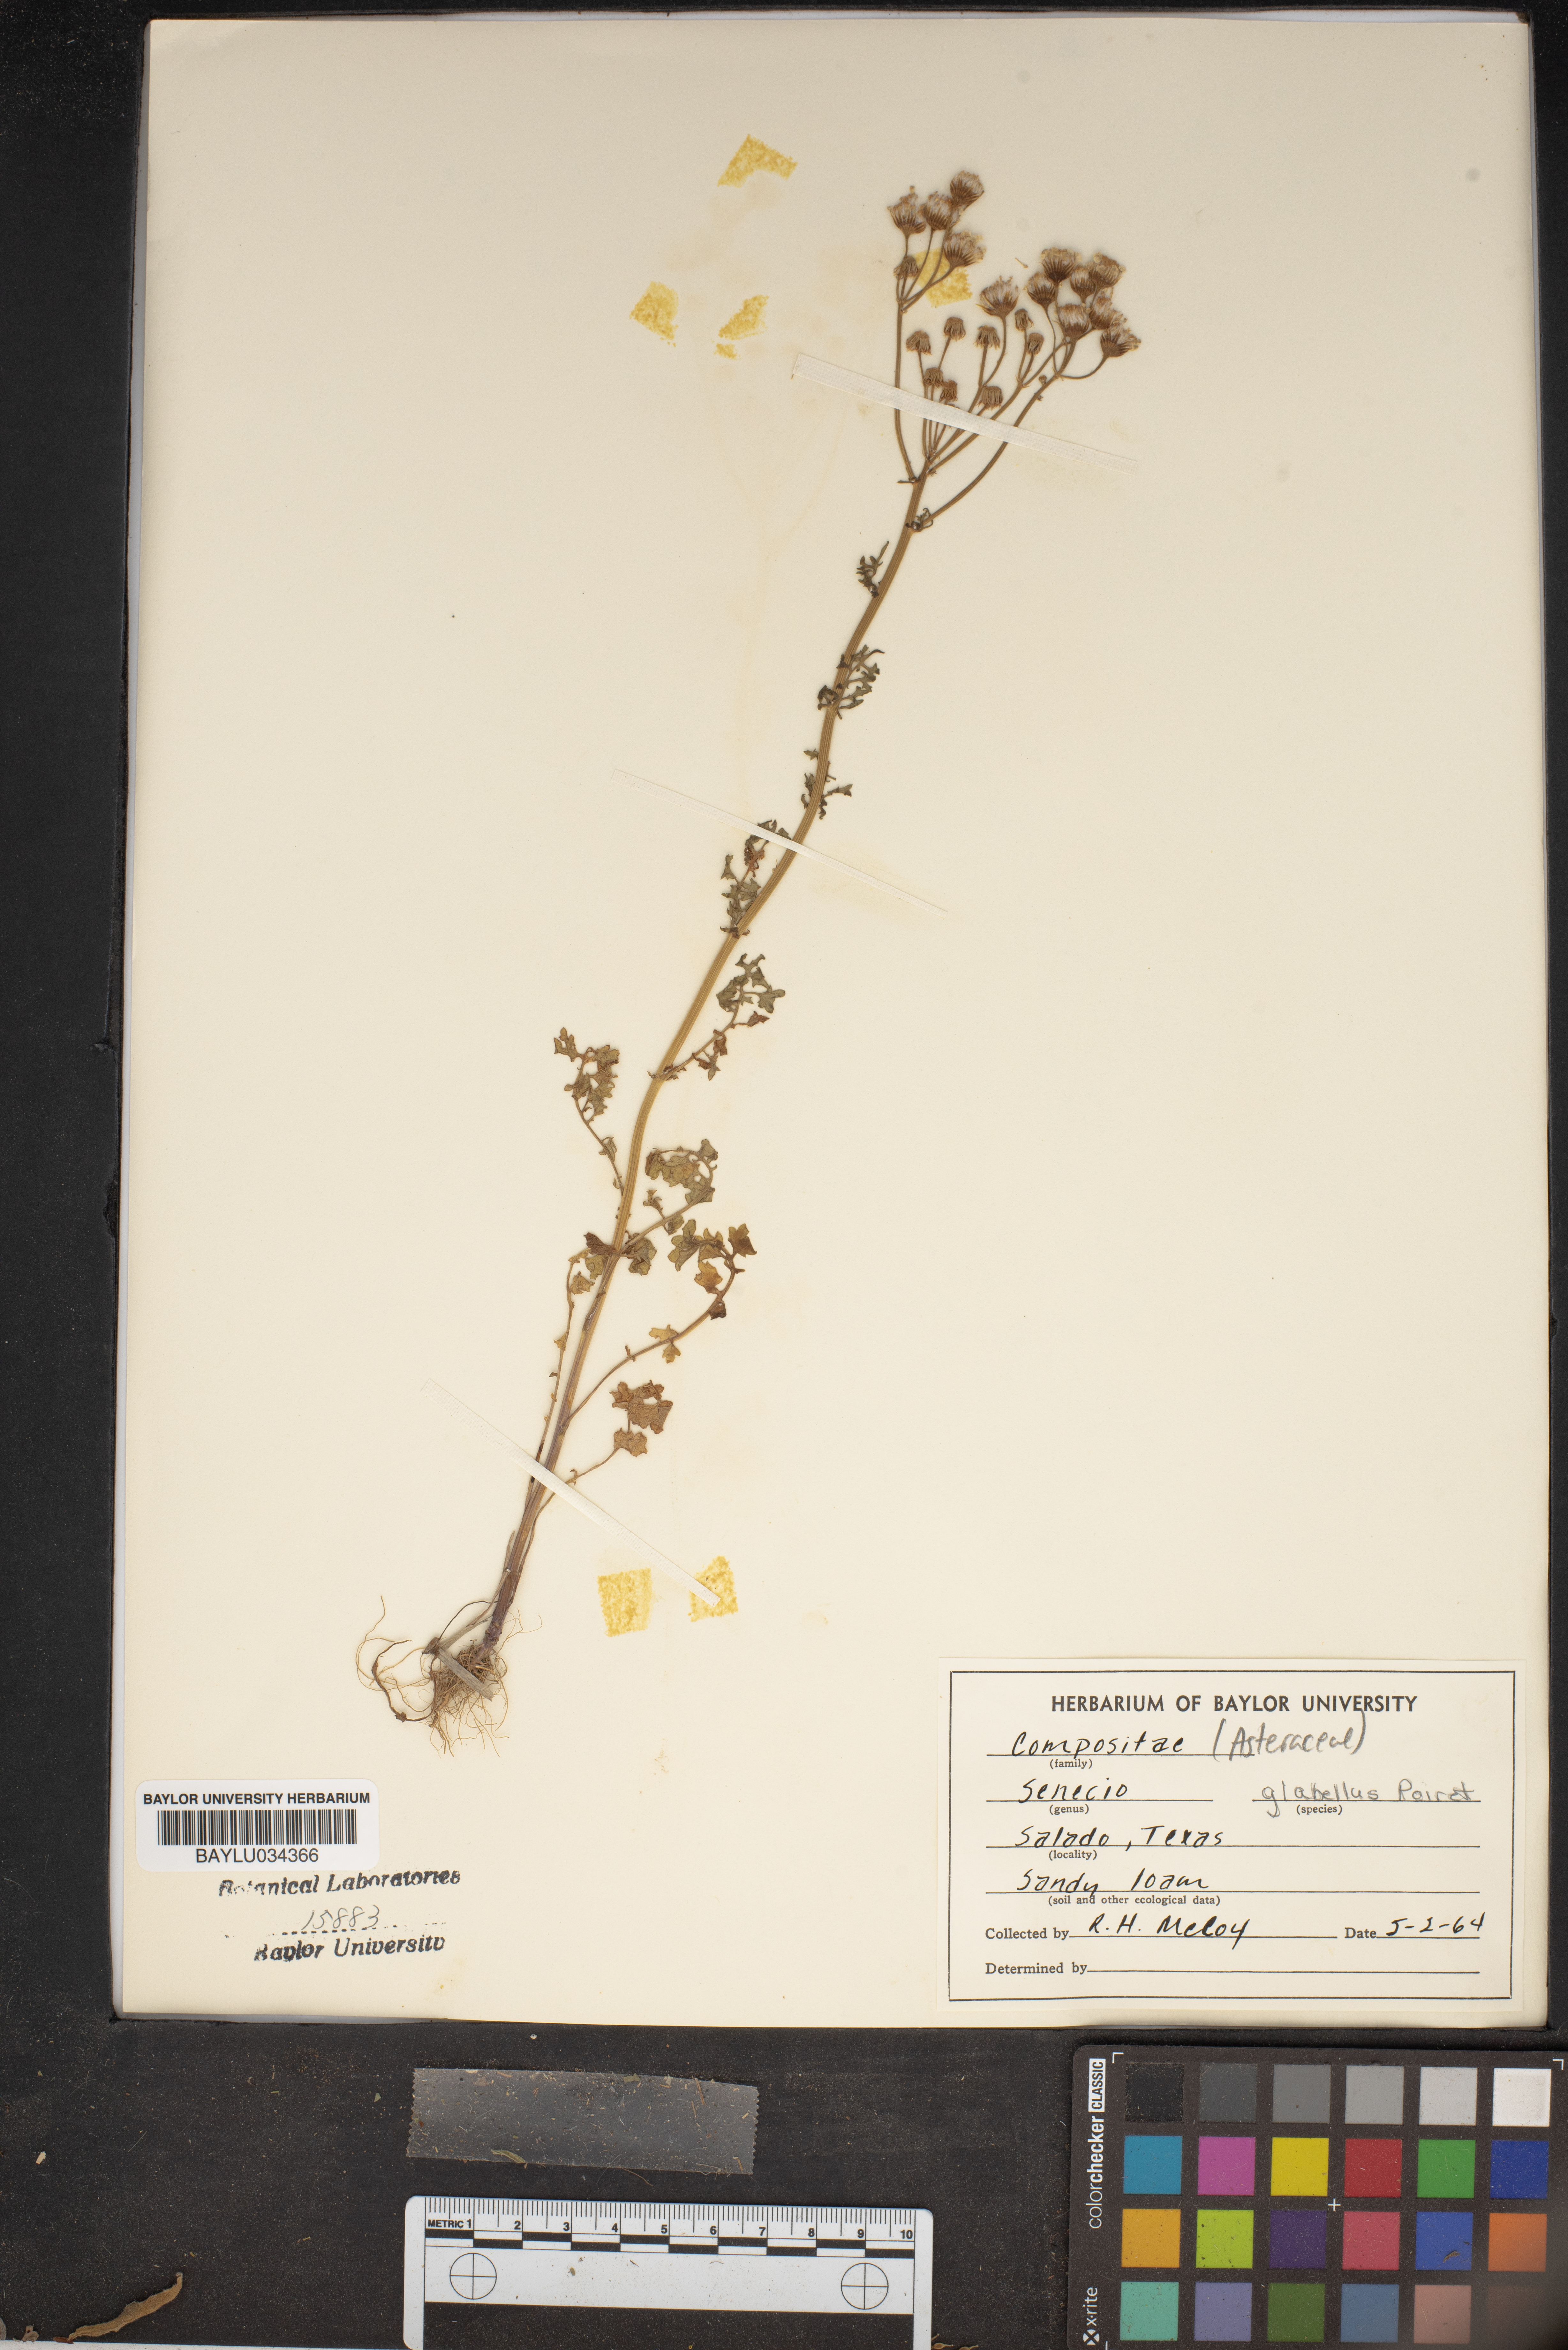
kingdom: Plantae
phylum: Tracheophyta
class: Magnoliopsida
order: Asterales
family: Asteraceae
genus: Tephroseris
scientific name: Tephroseris praticola
